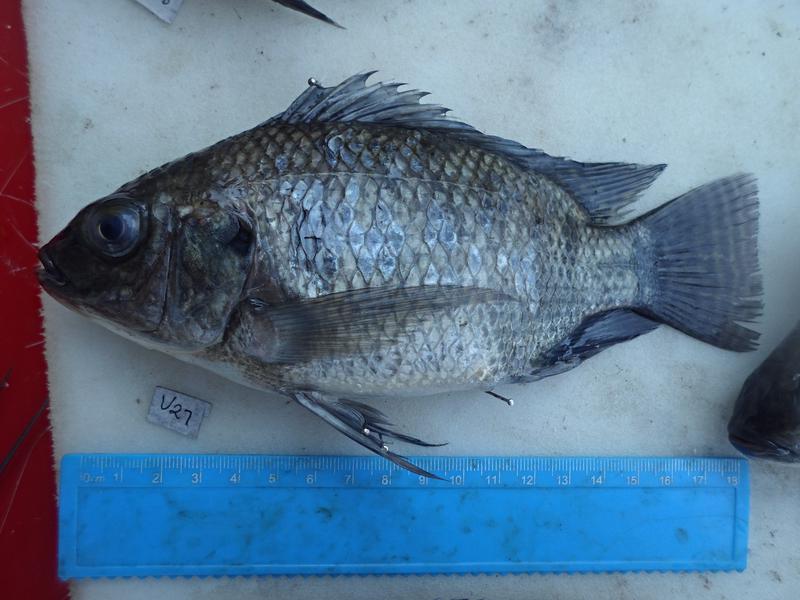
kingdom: Animalia
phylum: Chordata
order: Perciformes
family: Cichlidae
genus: Oreochromis
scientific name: Oreochromis niloticus
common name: Nile tilapia
